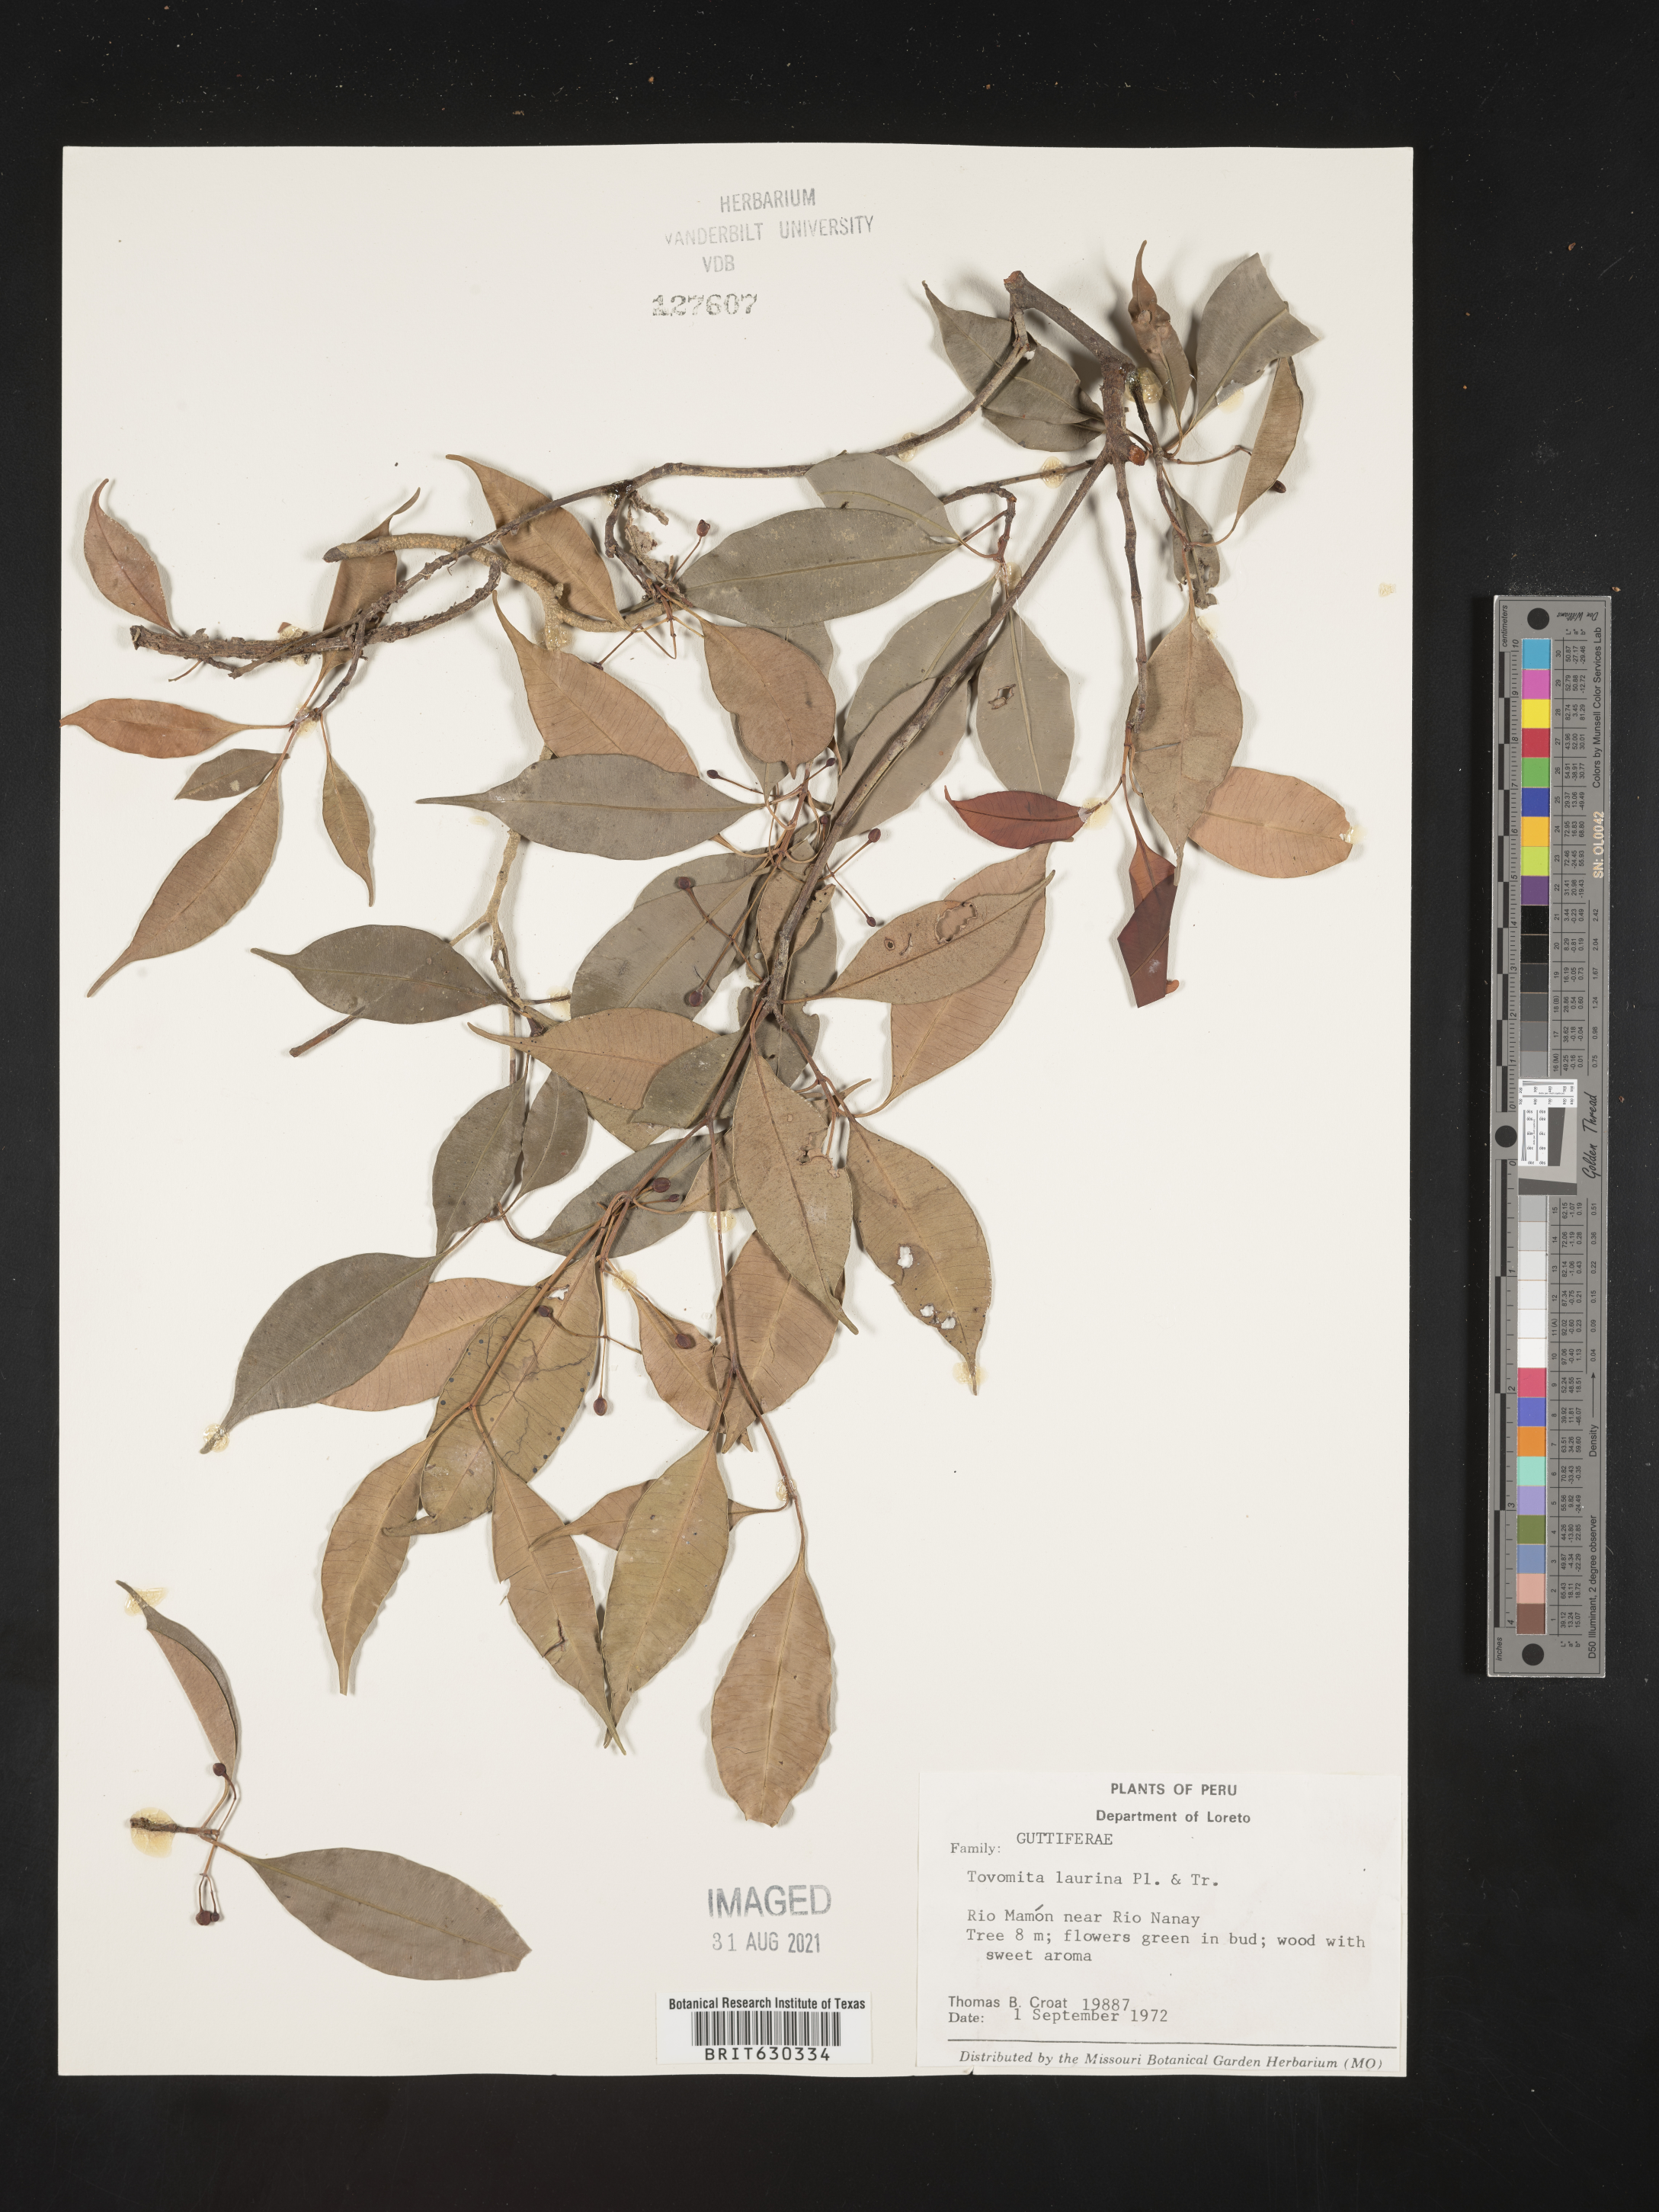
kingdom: Plantae
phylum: Tracheophyta
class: Magnoliopsida
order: Malpighiales
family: Clusiaceae
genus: Tovomita
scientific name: Tovomita laurina
